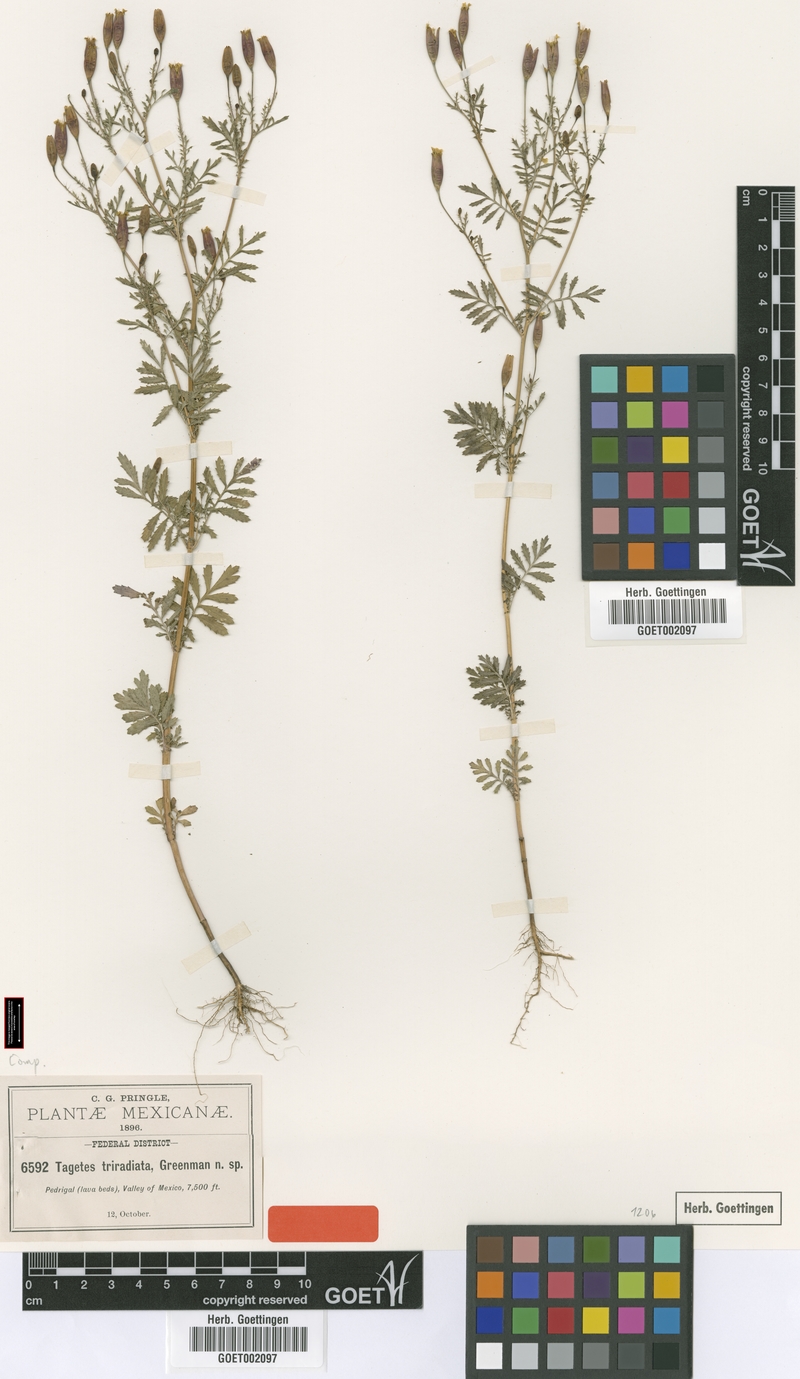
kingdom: Plantae
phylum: Tracheophyta
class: Magnoliopsida
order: Asterales
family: Asteraceae
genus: Tagetes
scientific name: Tagetes triradiata
